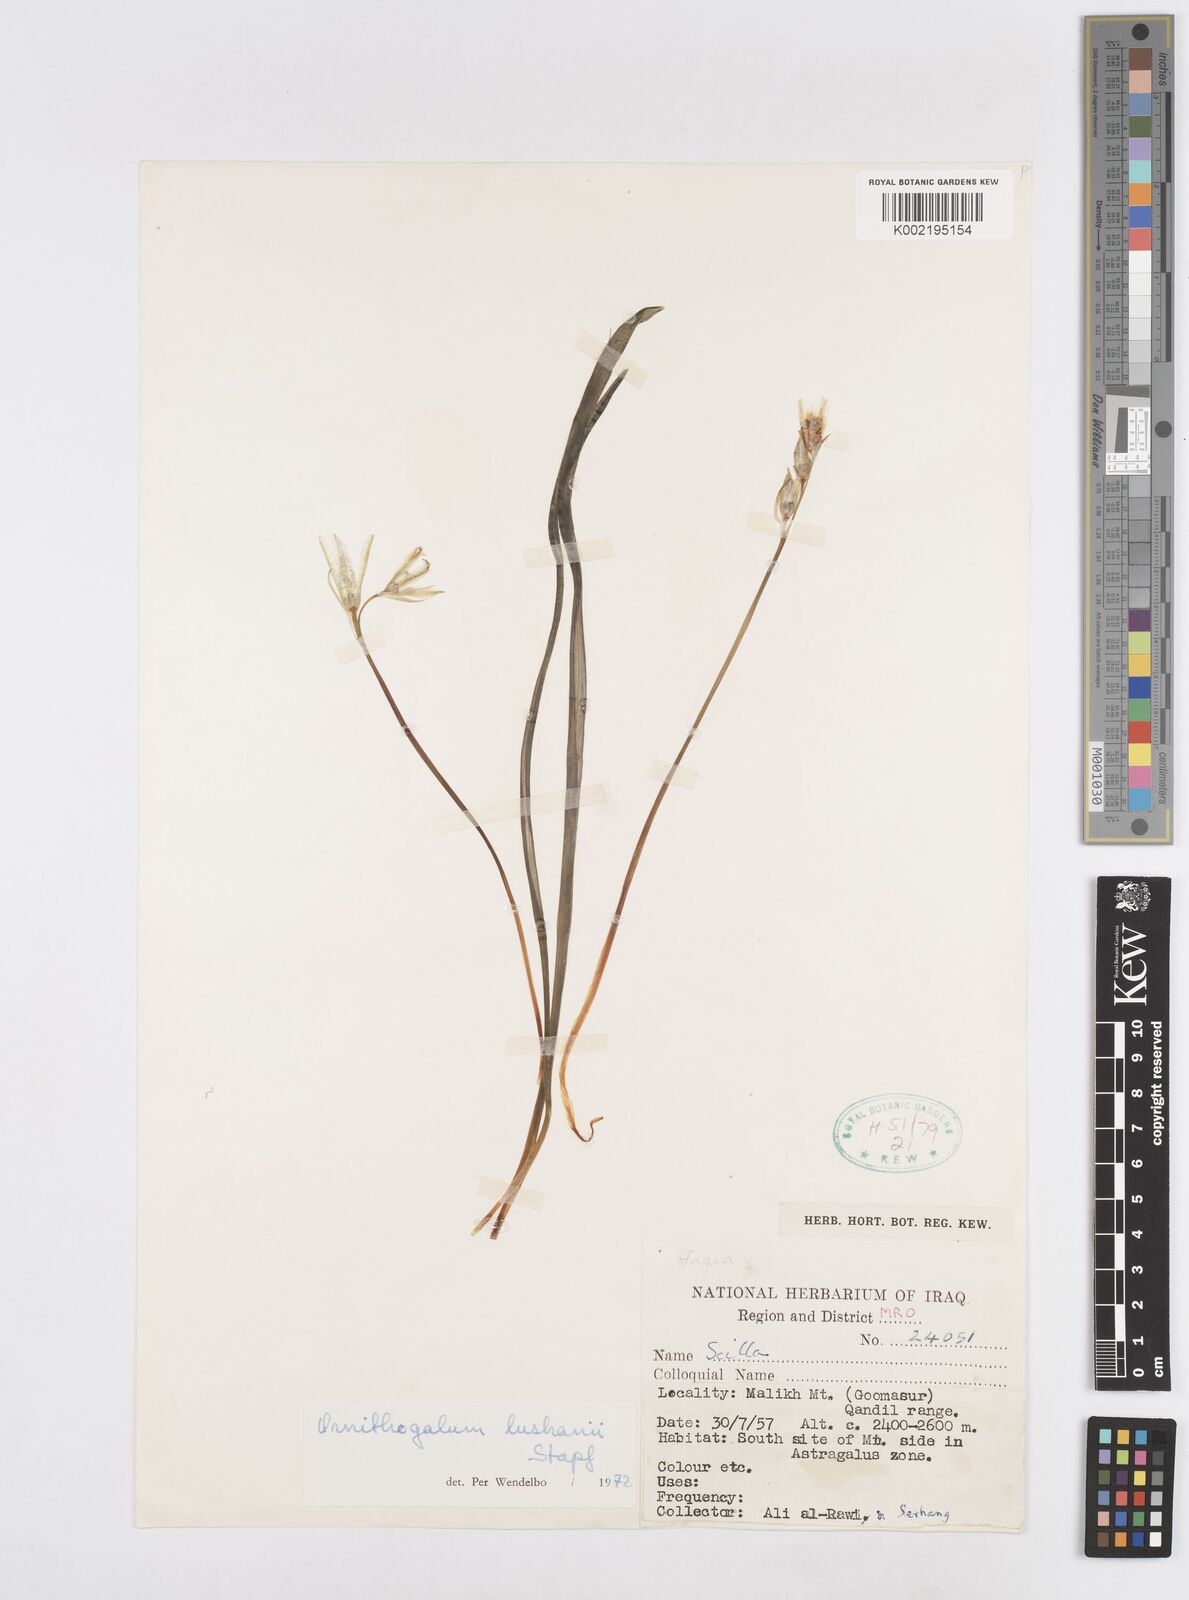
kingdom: Plantae
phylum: Tracheophyta
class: Liliopsida
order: Asparagales
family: Asparagaceae
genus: Ornithogalum
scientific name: Ornithogalum luschanii
